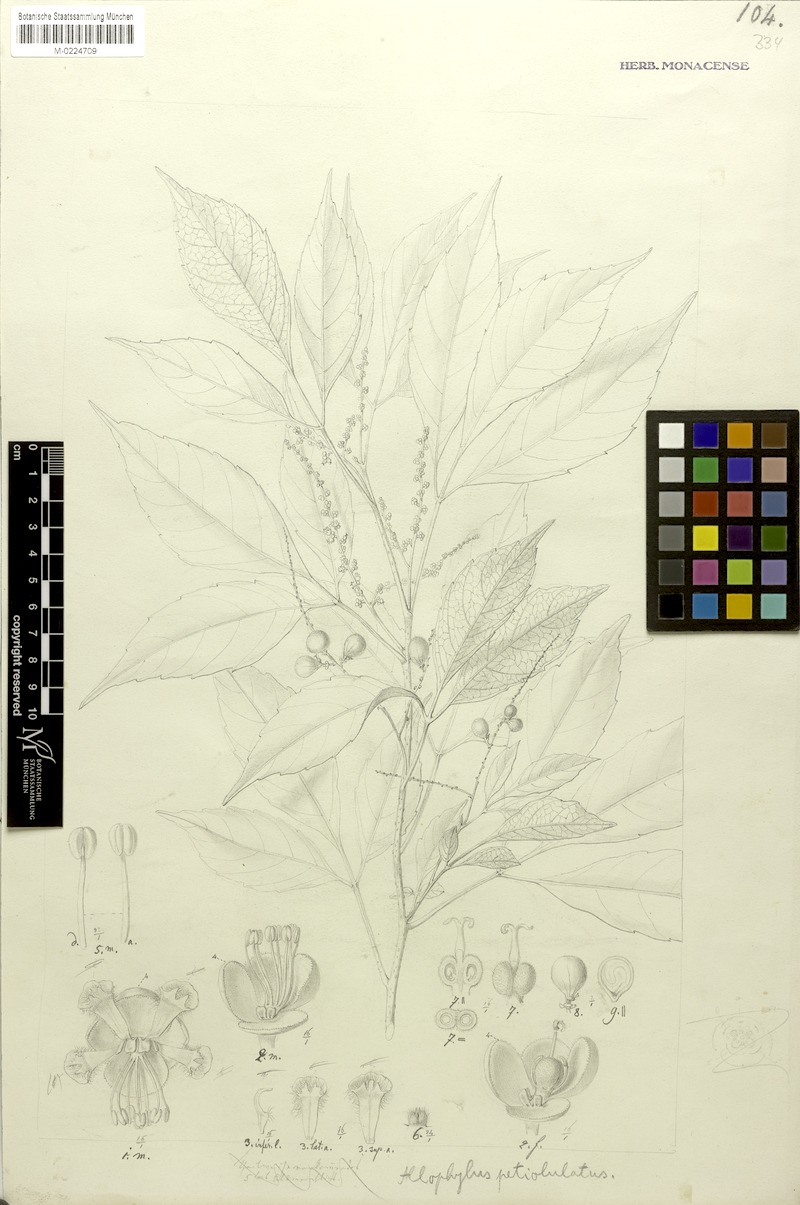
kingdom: Plantae
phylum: Tracheophyta
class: Magnoliopsida
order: Sapindales
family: Sapindaceae
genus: Allophylus
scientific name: Allophylus petiolulatus
